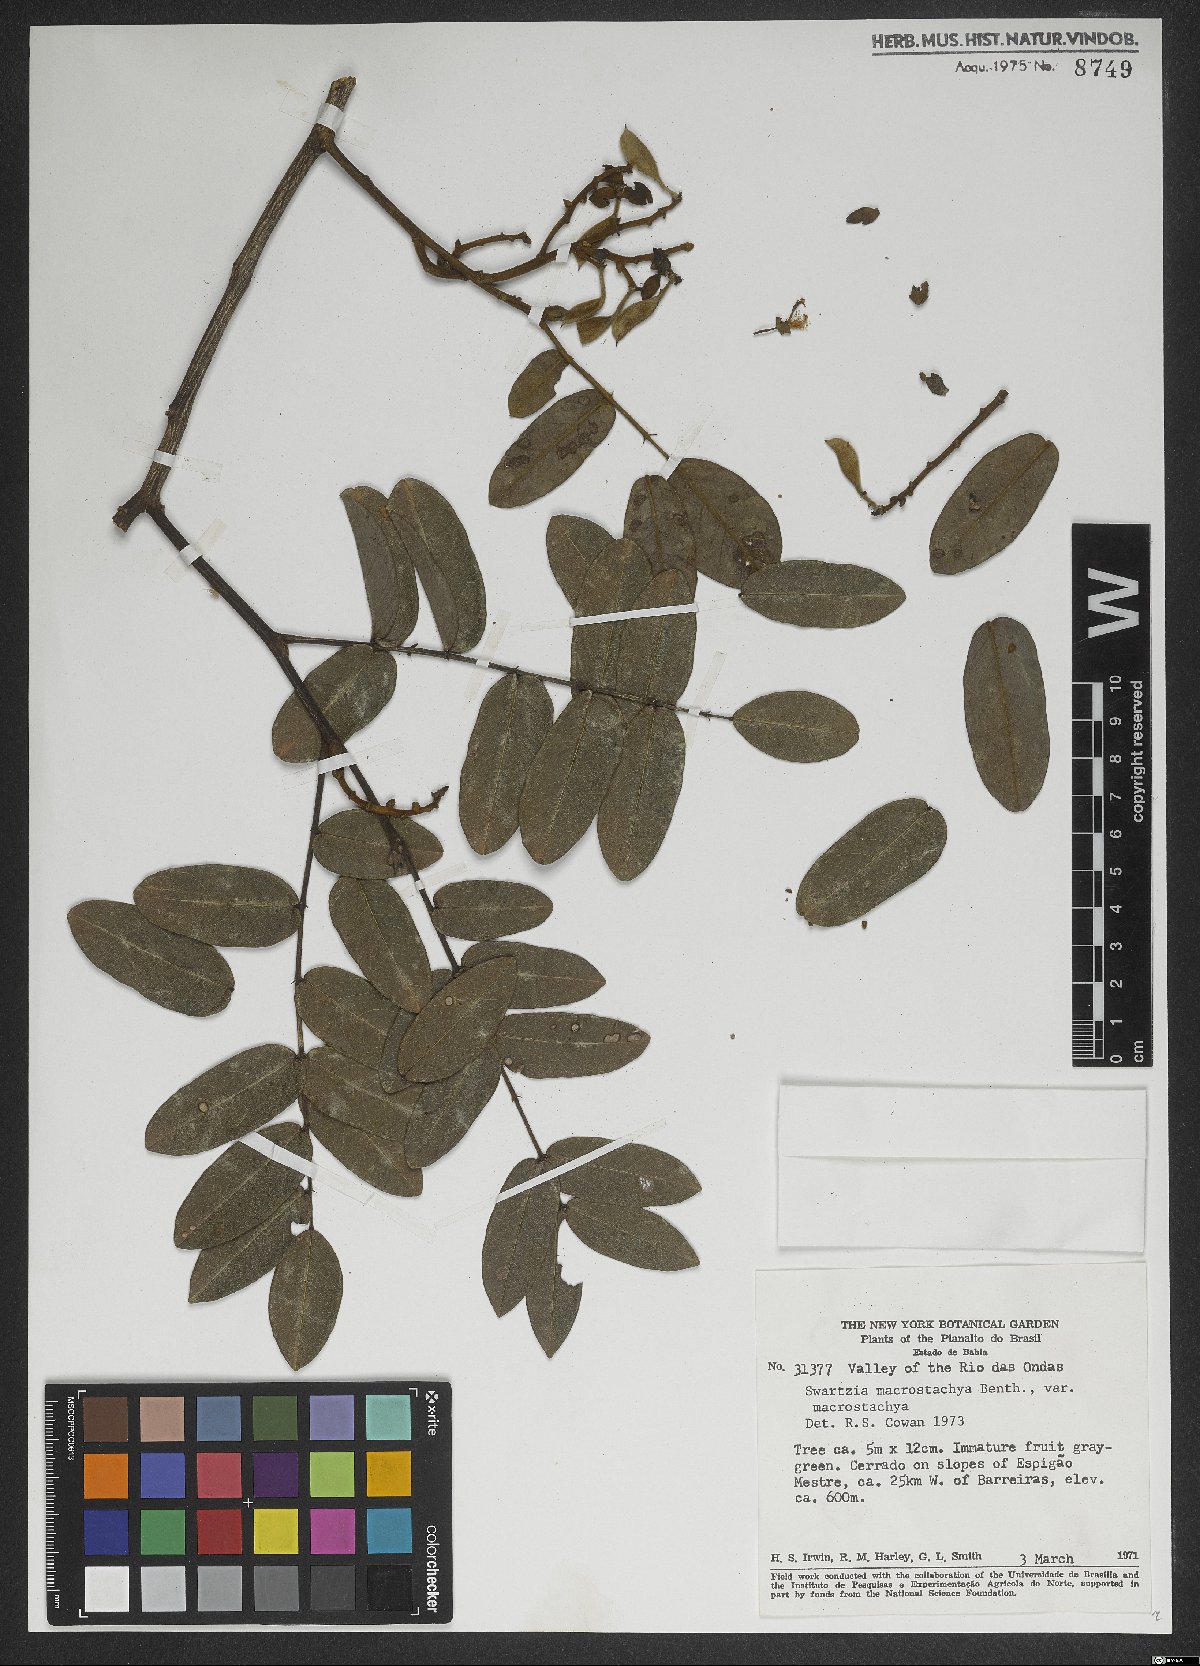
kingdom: Plantae
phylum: Tracheophyta
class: Magnoliopsida
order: Fabales
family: Fabaceae
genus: Swartzia
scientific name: Swartzia macrostachya
